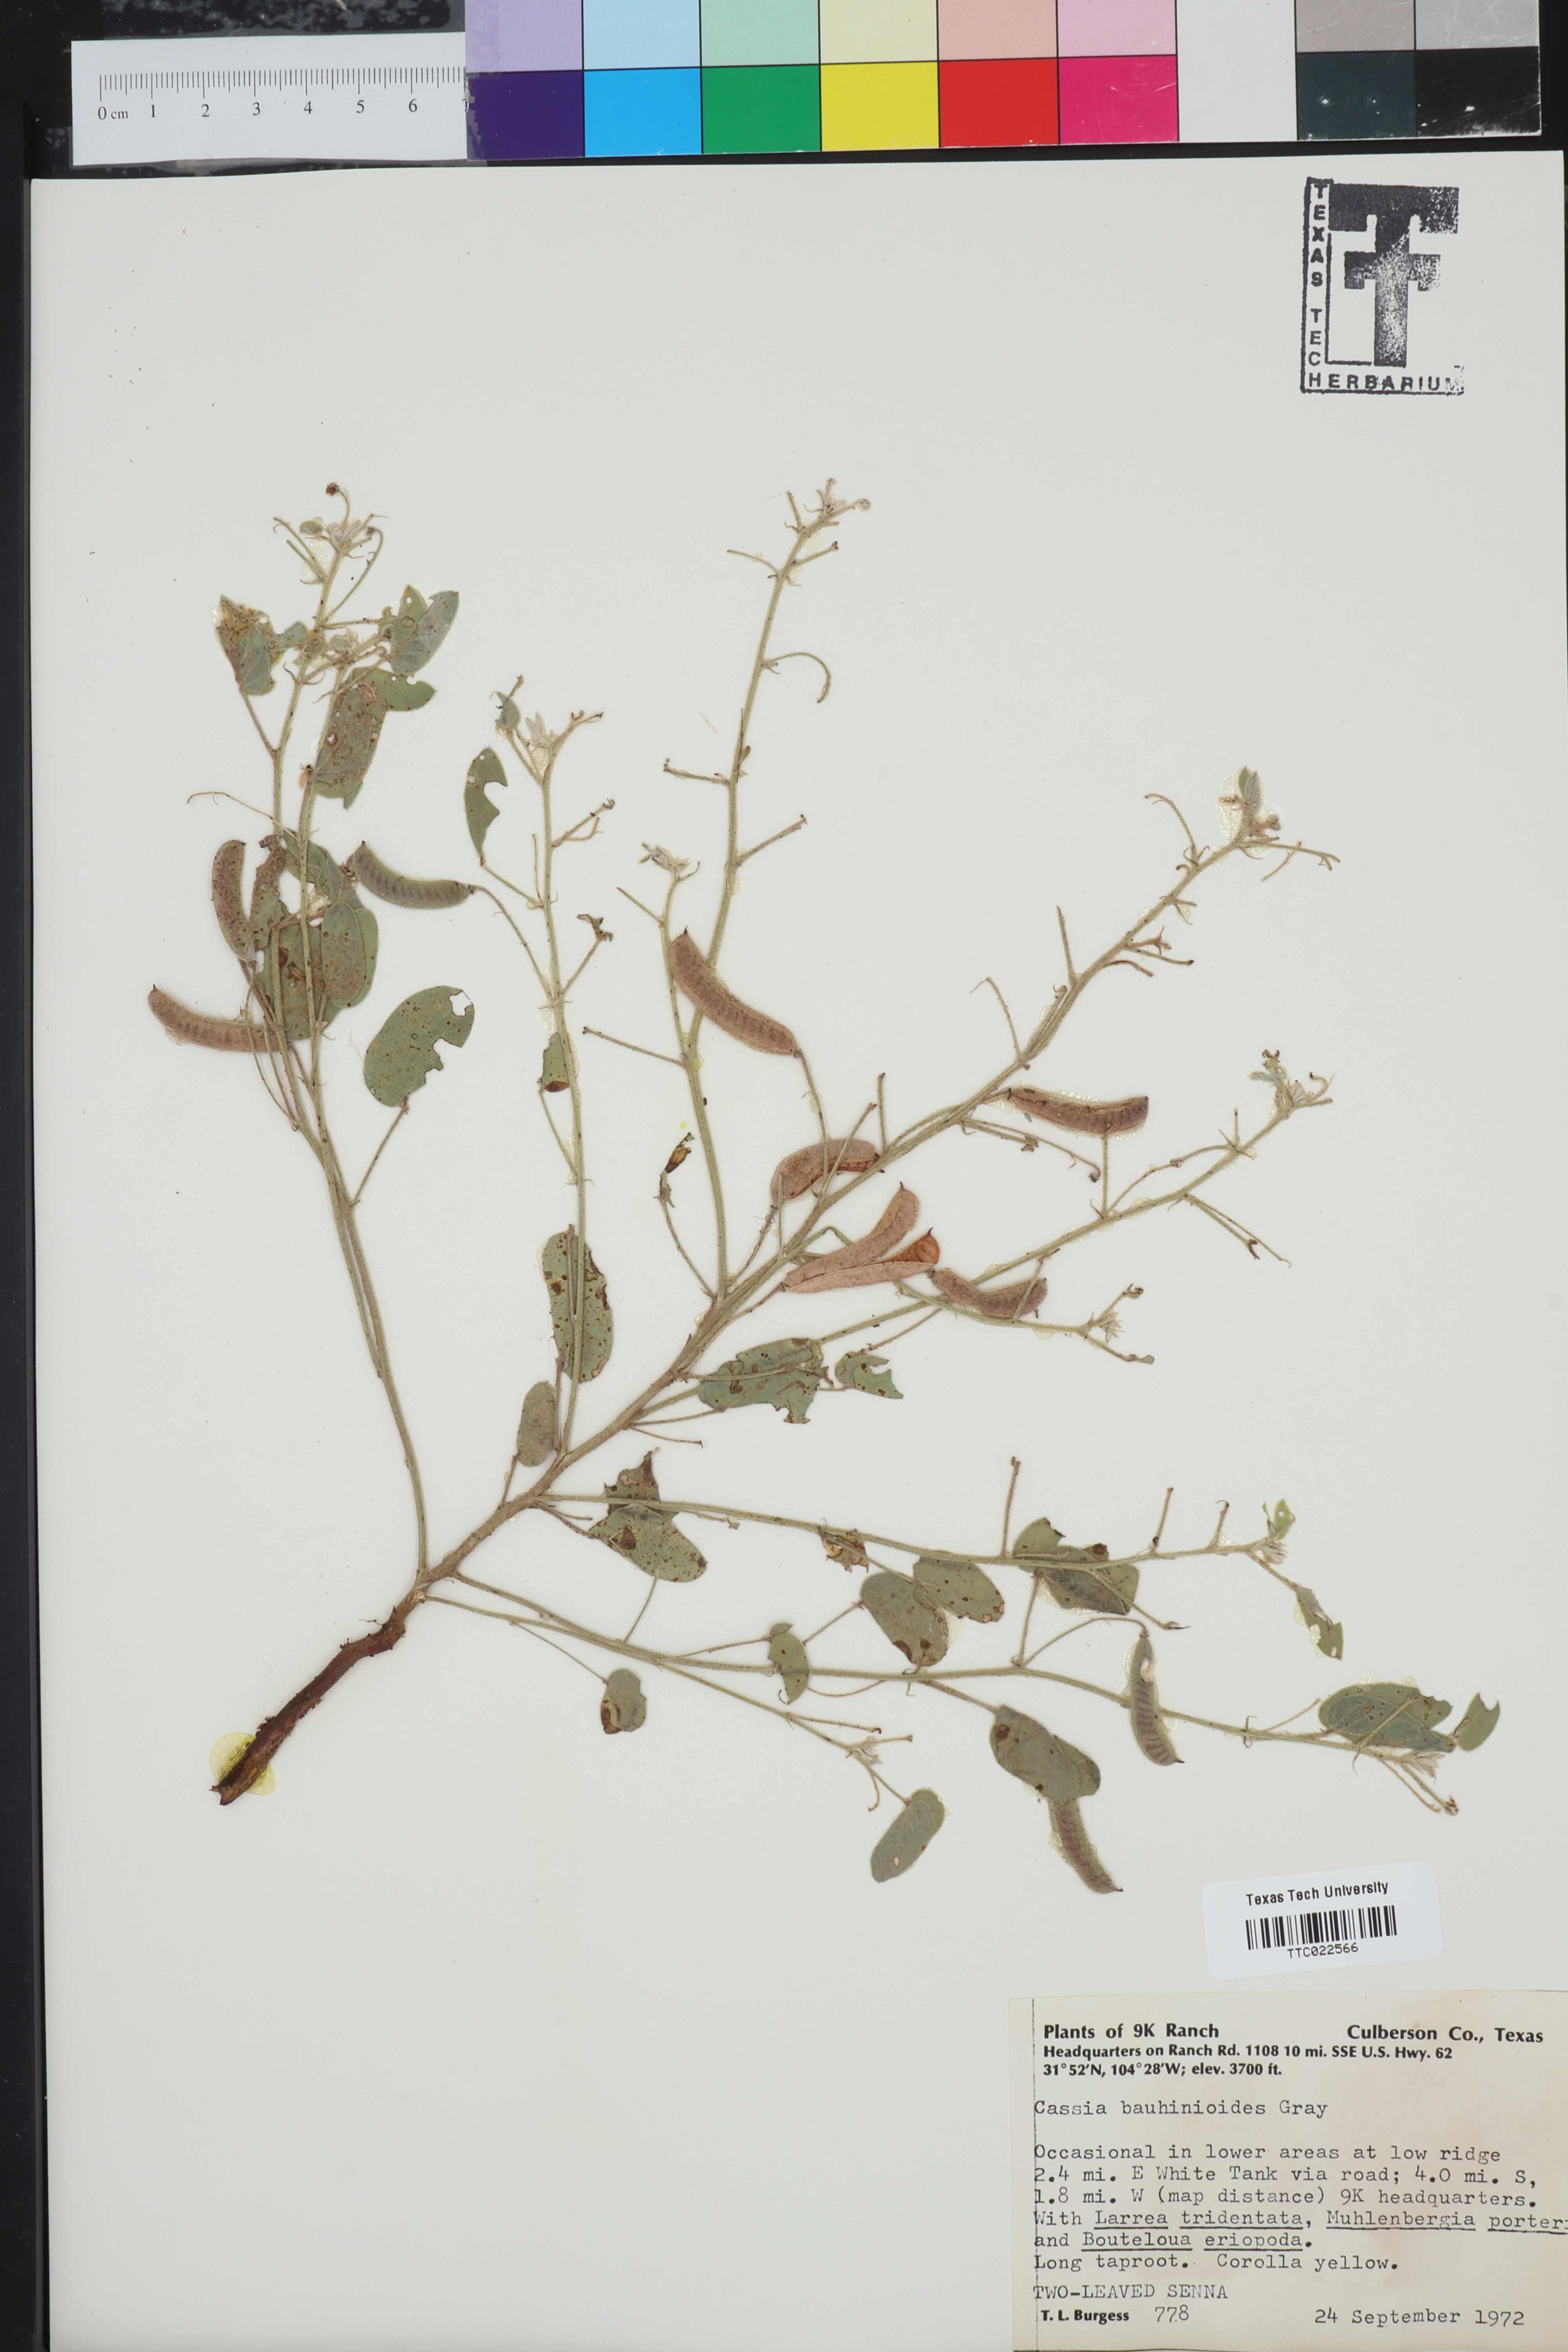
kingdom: Plantae
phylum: Tracheophyta
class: Magnoliopsida
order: Fabales
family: Fabaceae
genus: Senna
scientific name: Senna bauhinioides
